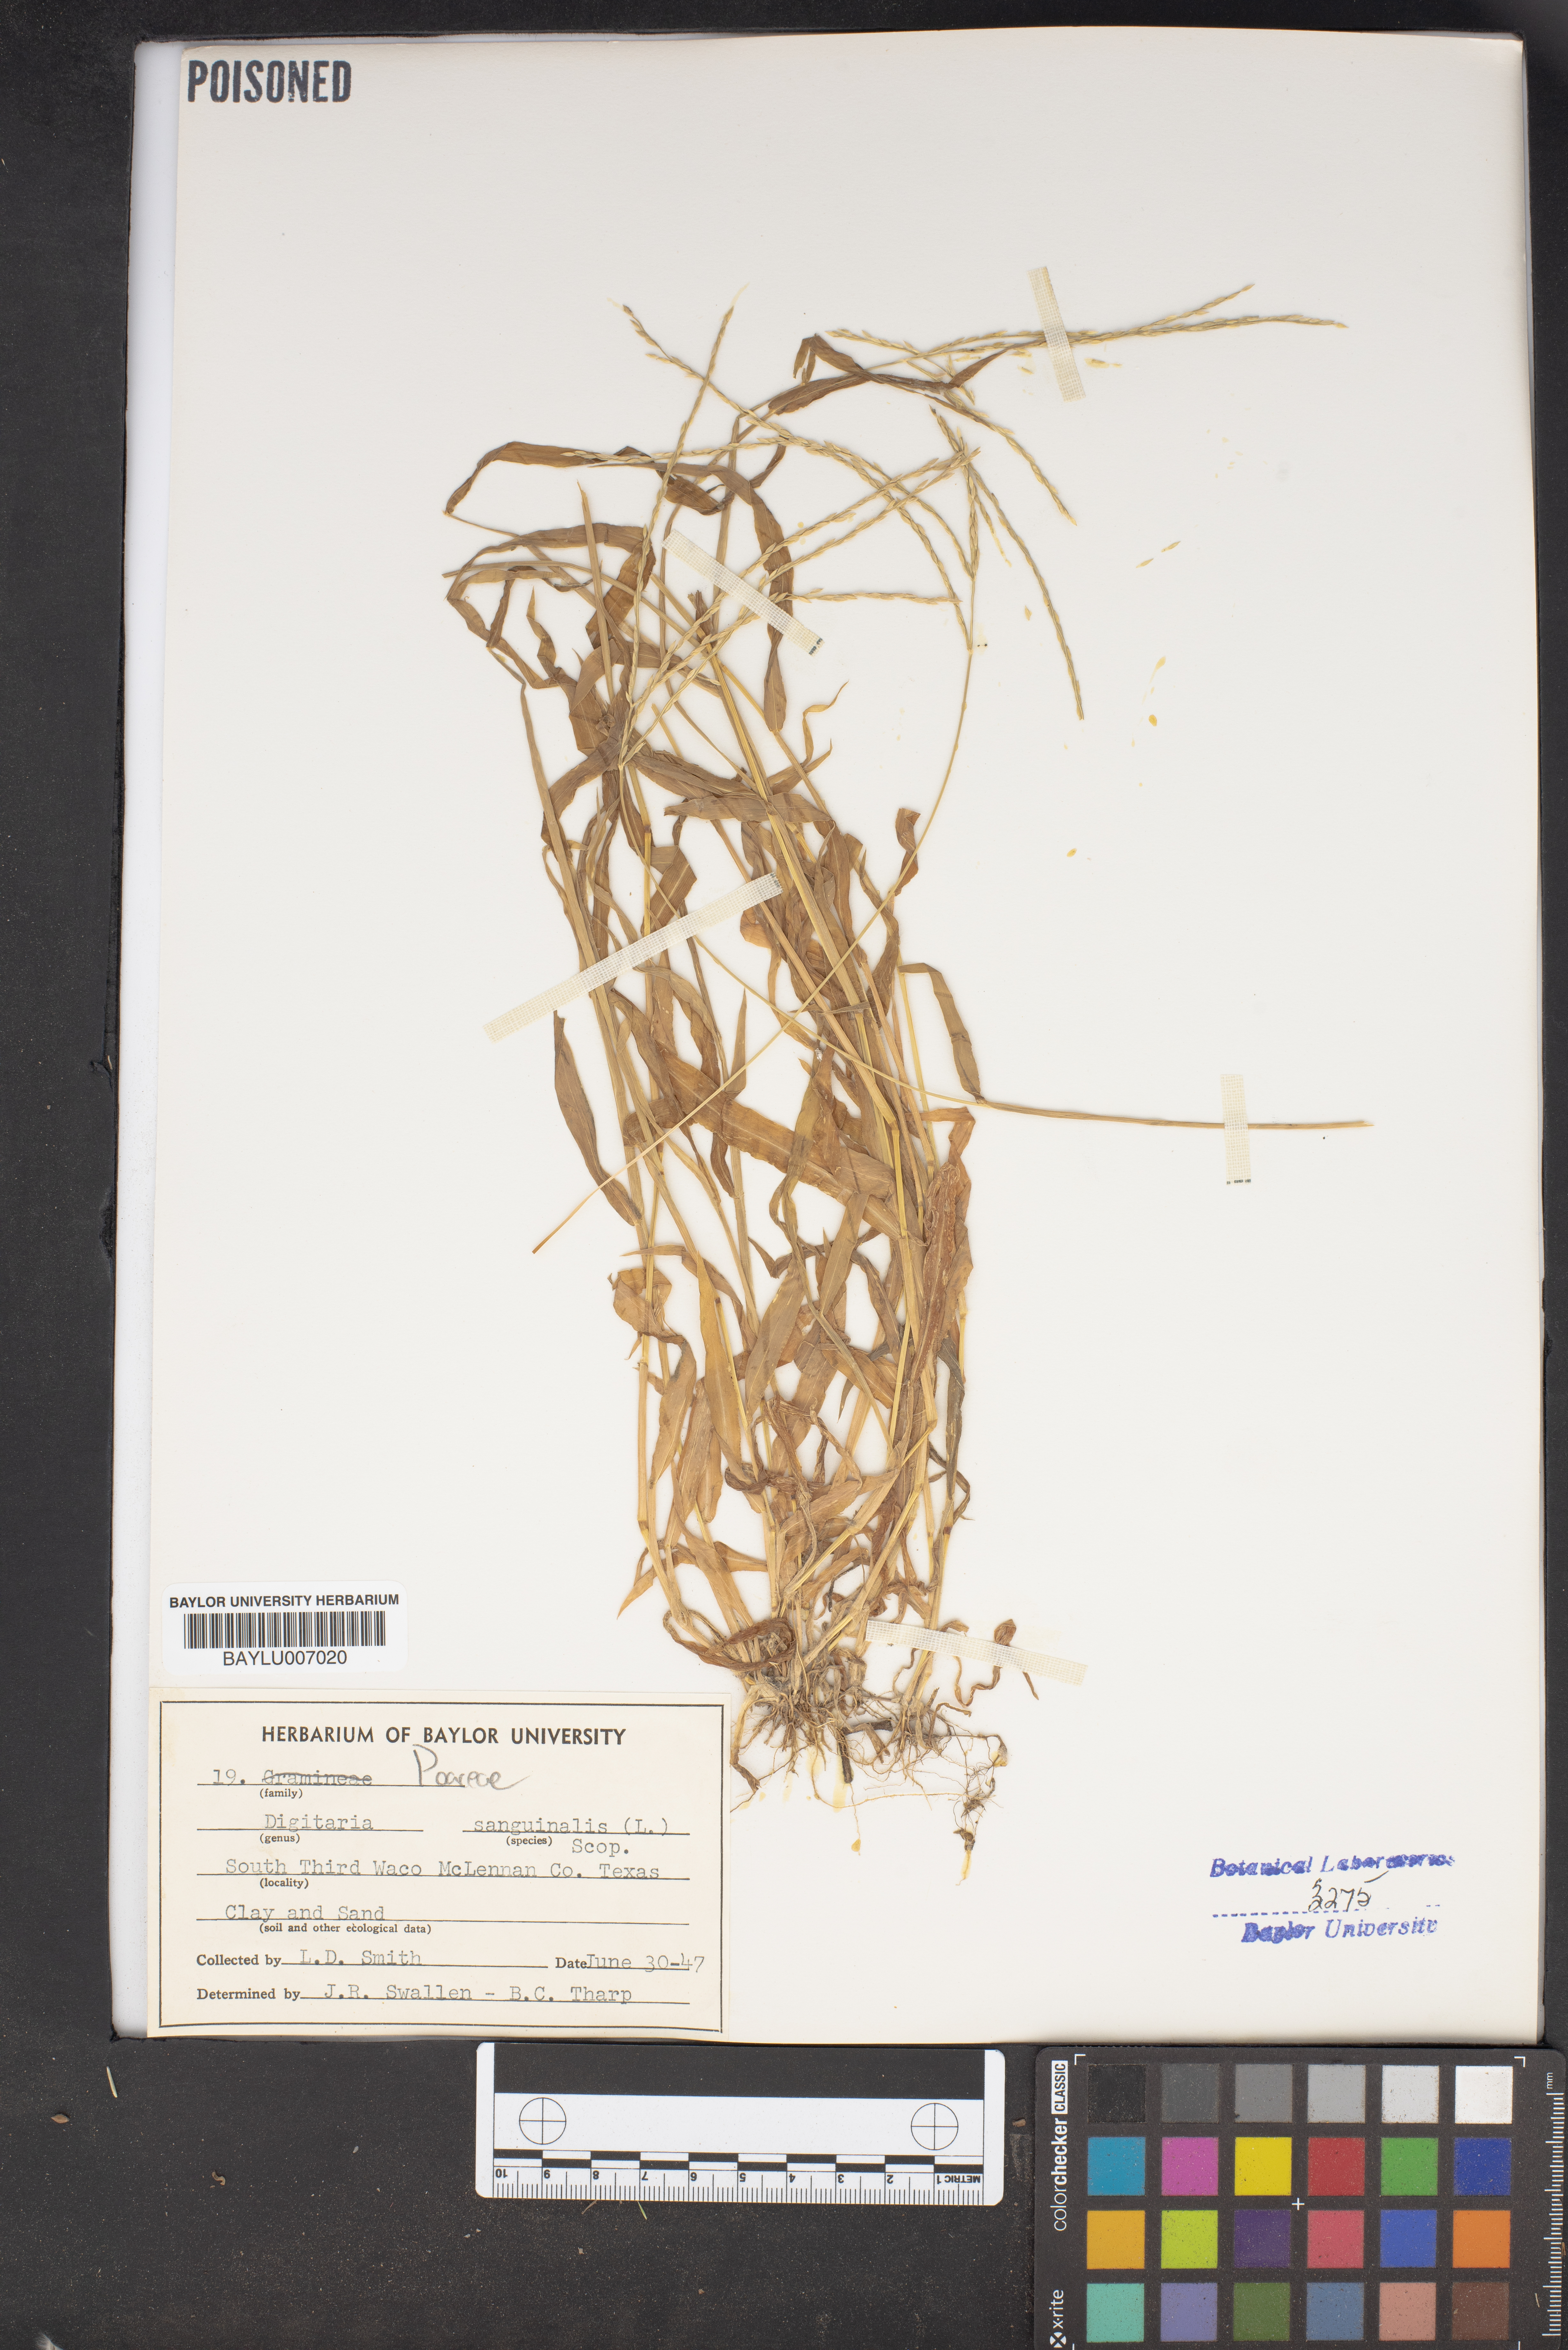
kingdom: Plantae
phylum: Tracheophyta
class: Liliopsida
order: Poales
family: Poaceae
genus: Digitaria
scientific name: Digitaria sanguinalis
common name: Hairy crabgrass
